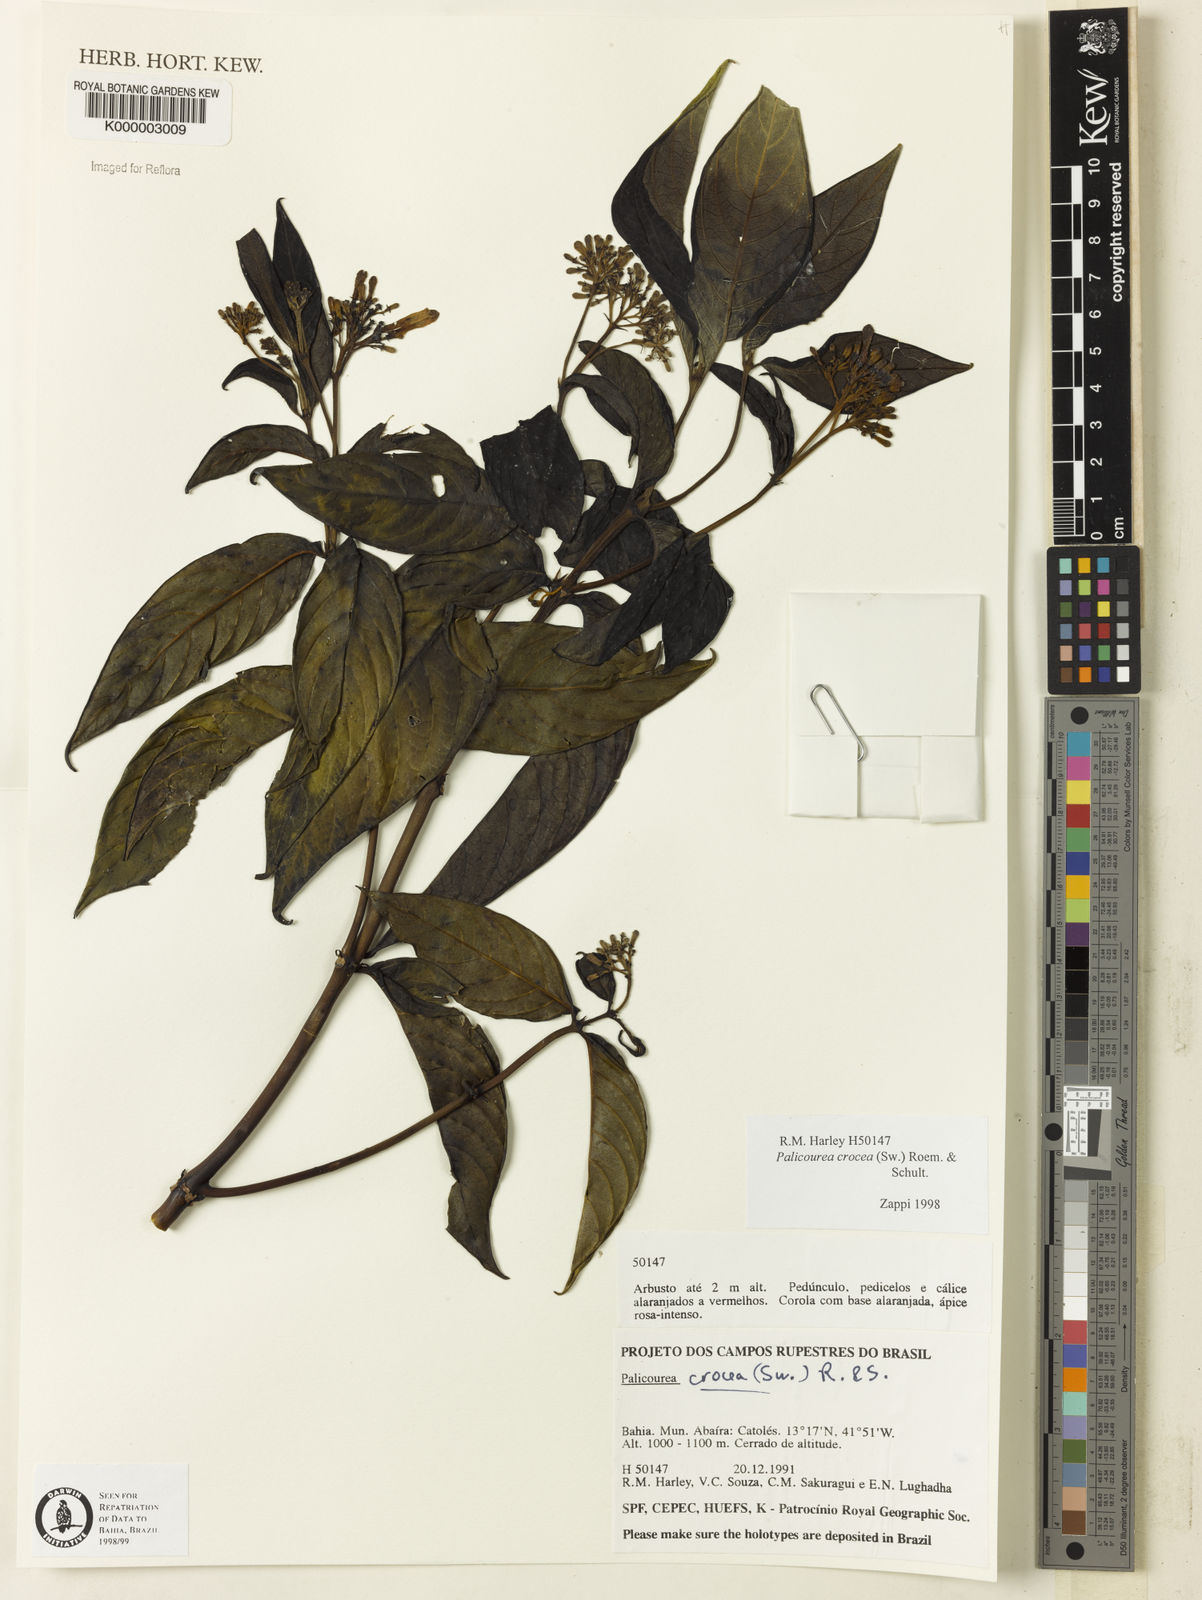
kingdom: Plantae
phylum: Tracheophyta
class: Magnoliopsida
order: Gentianales
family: Rubiaceae
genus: Palicourea
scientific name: Palicourea marcgravii
